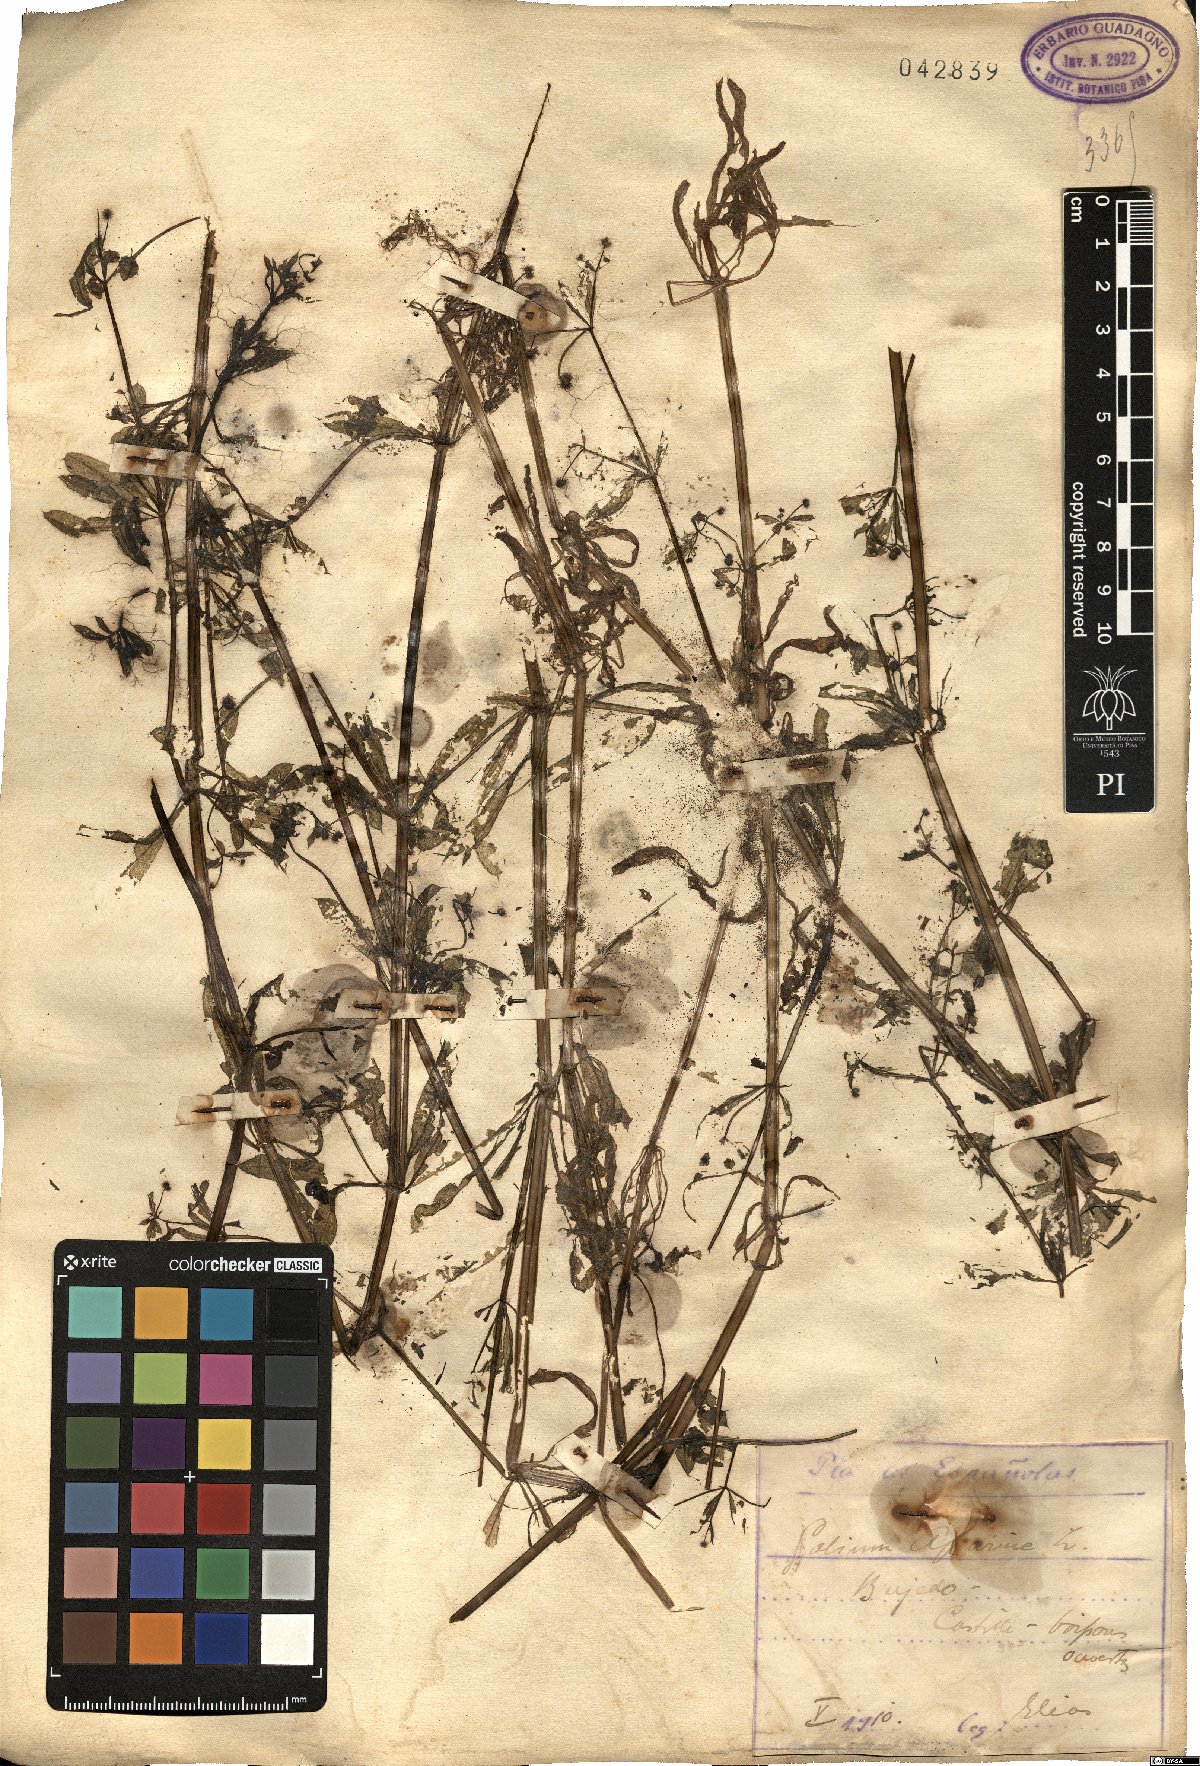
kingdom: Plantae
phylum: Tracheophyta
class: Magnoliopsida
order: Gentianales
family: Rubiaceae
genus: Galium
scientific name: Galium aparine
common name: Cleavers
